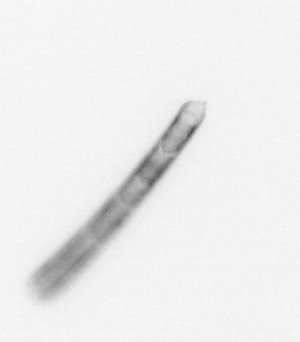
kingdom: Chromista
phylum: Ochrophyta
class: Bacillariophyceae
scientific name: Bacillariophyceae
